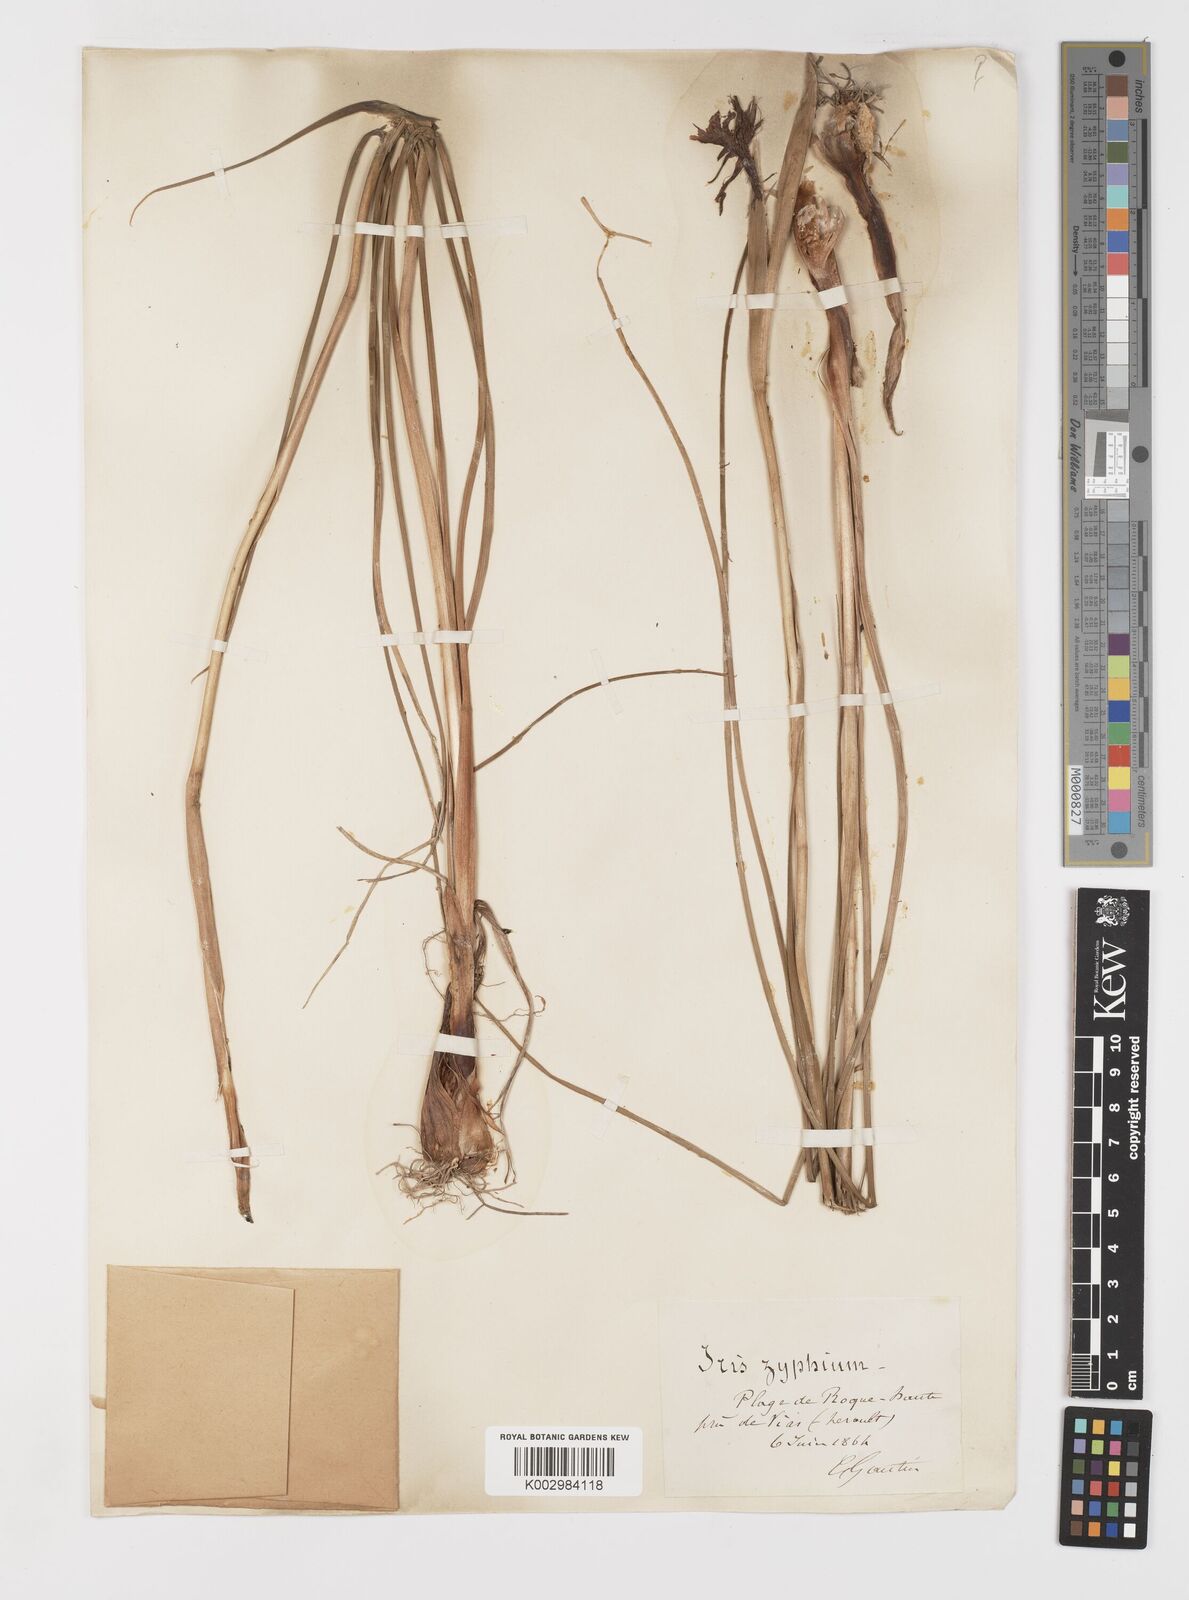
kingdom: Plantae
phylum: Tracheophyta
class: Liliopsida
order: Asparagales
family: Iridaceae
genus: Iris
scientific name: Iris xiphium
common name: Spanish iris
